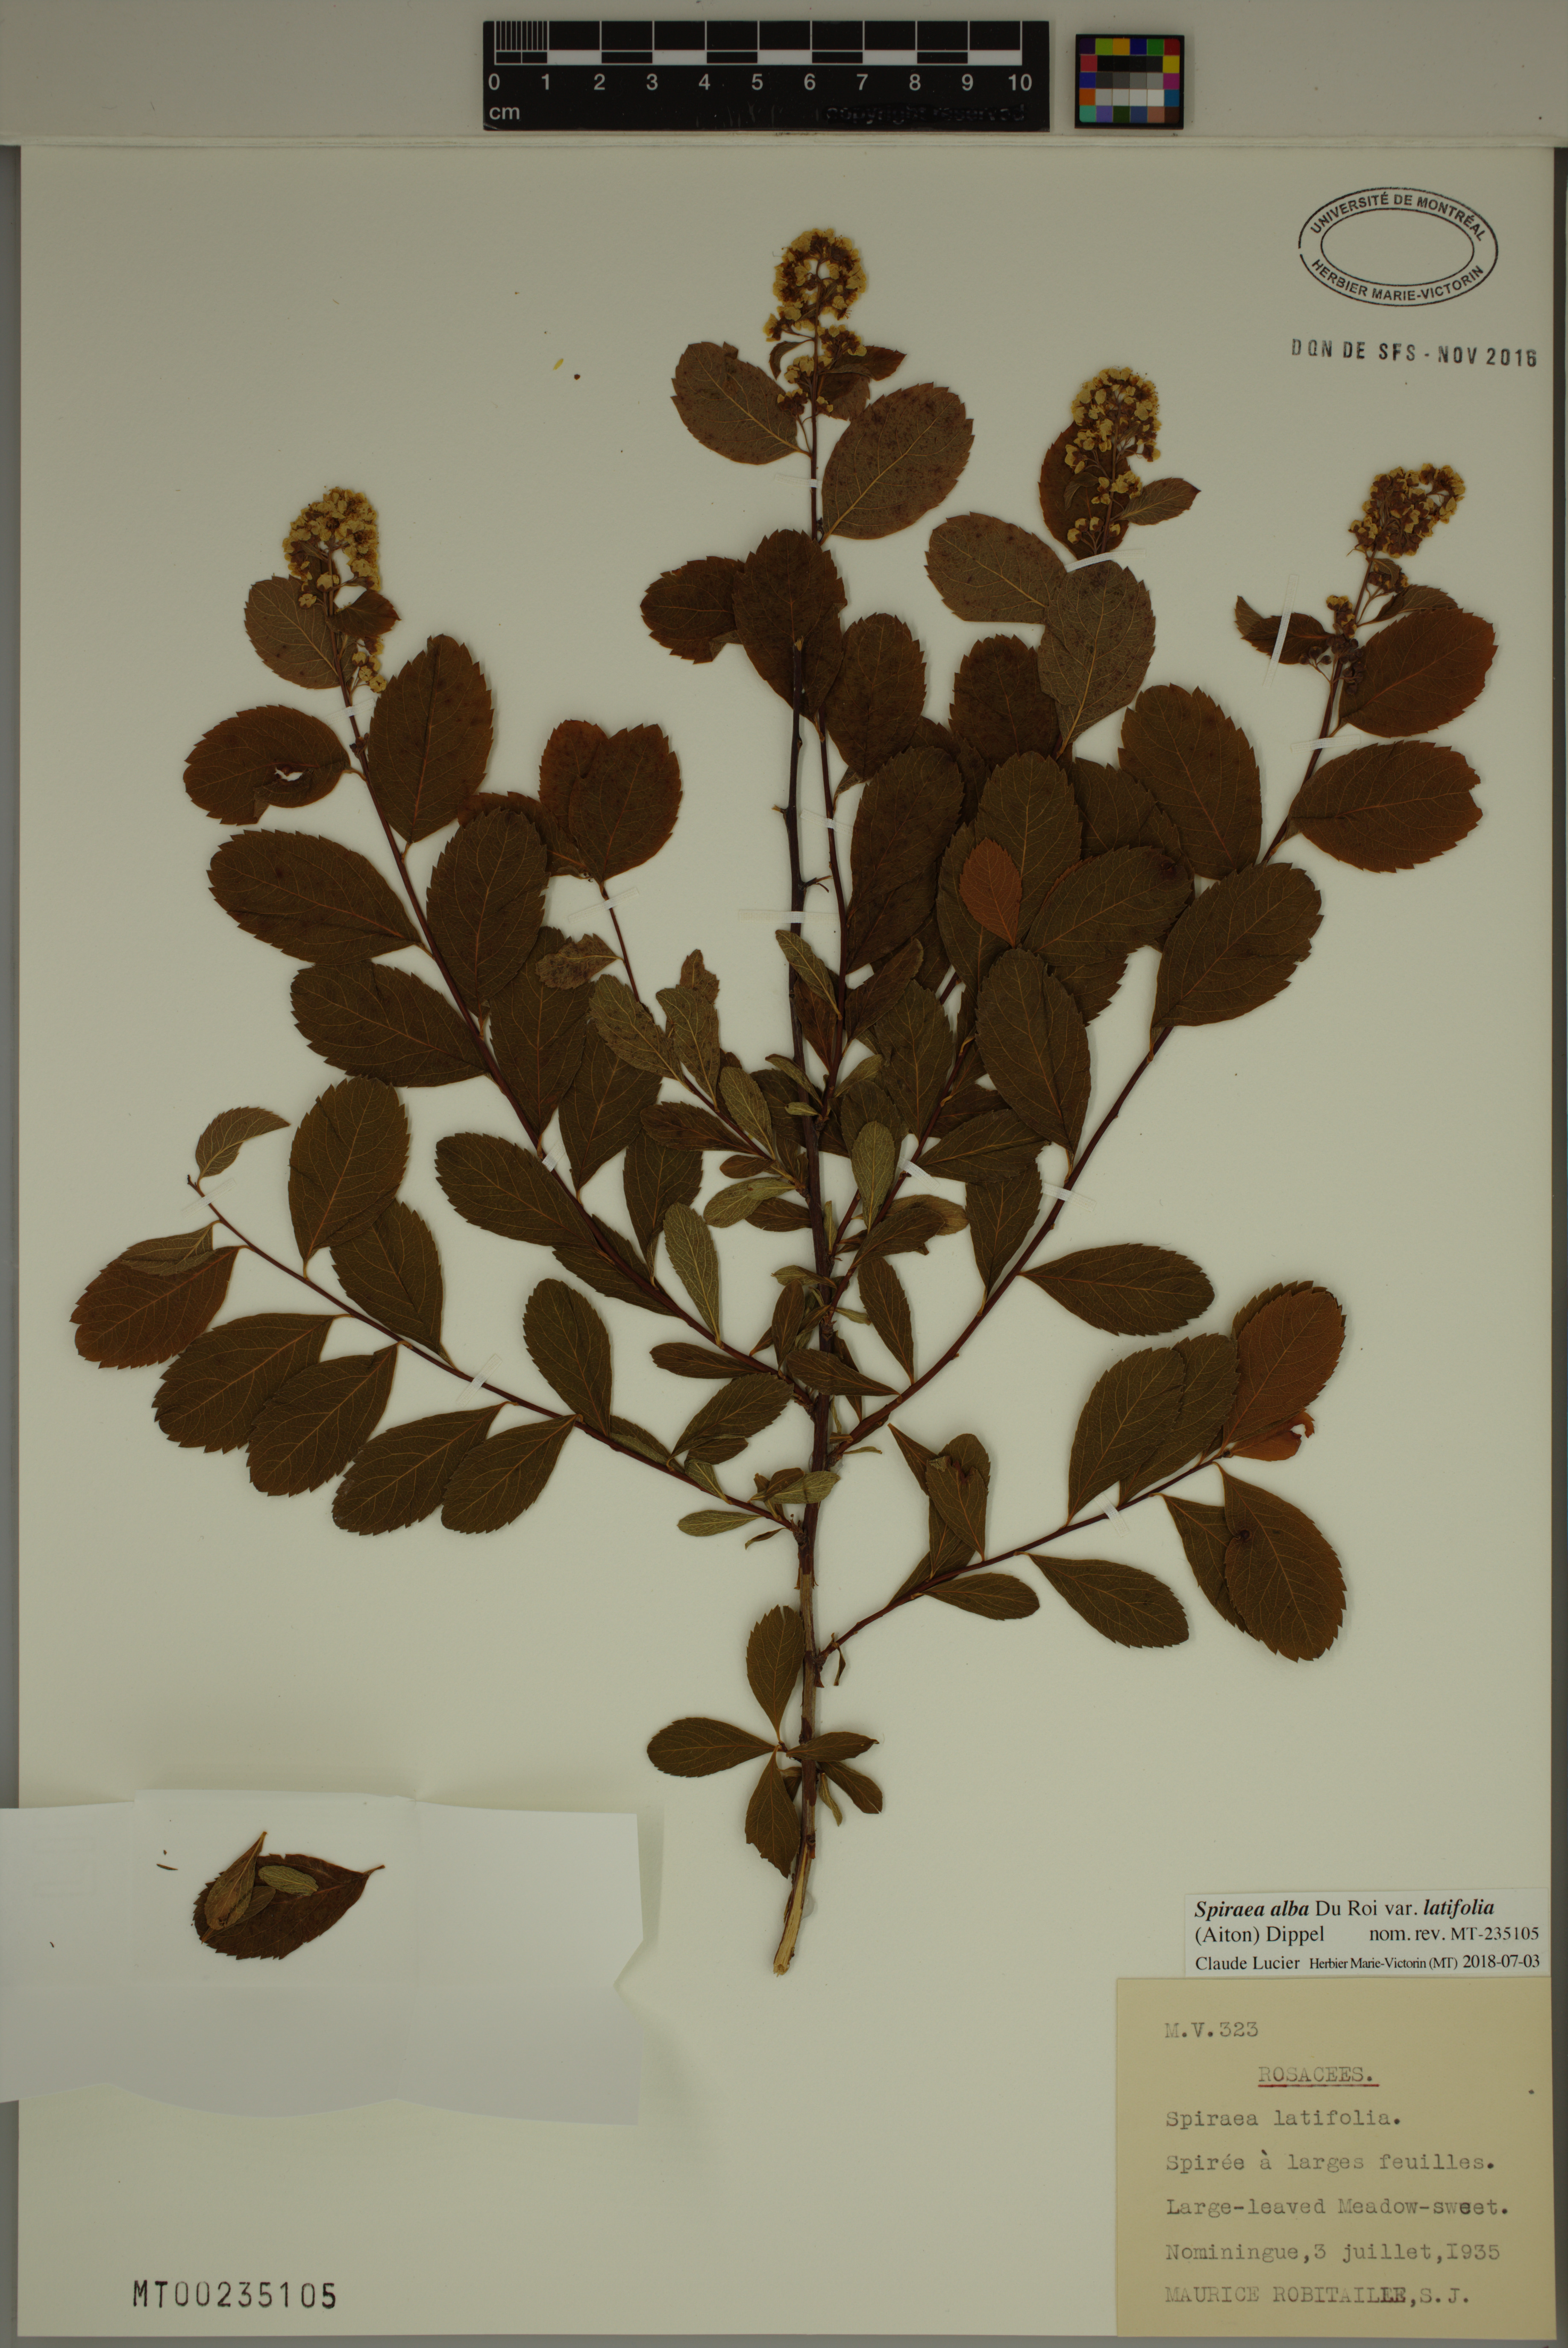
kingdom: Plantae
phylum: Tracheophyta
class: Magnoliopsida
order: Rosales
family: Rosaceae
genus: Spiraea
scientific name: Spiraea alba
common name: Pale bridewort
